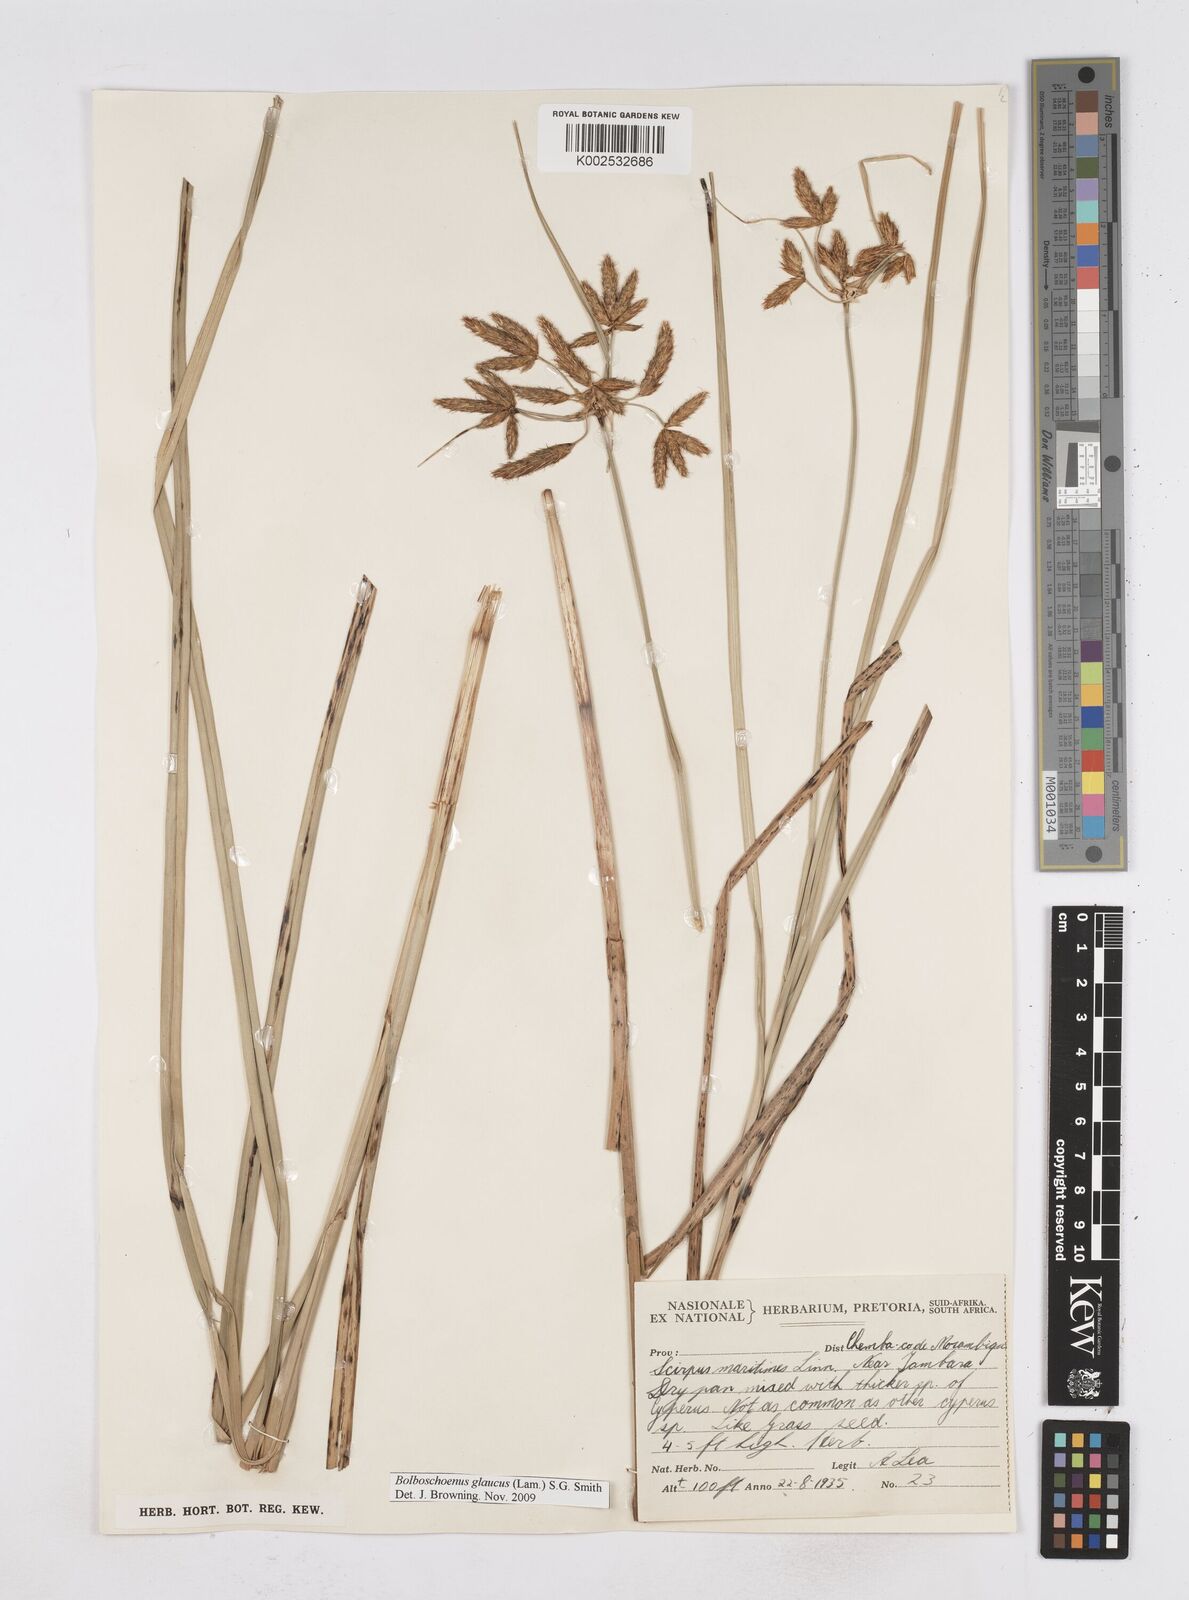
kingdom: Plantae
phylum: Tracheophyta
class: Liliopsida
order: Poales
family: Cyperaceae
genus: Bolboschoenus
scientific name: Bolboschoenus glaucus
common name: Tuberous bulrush
